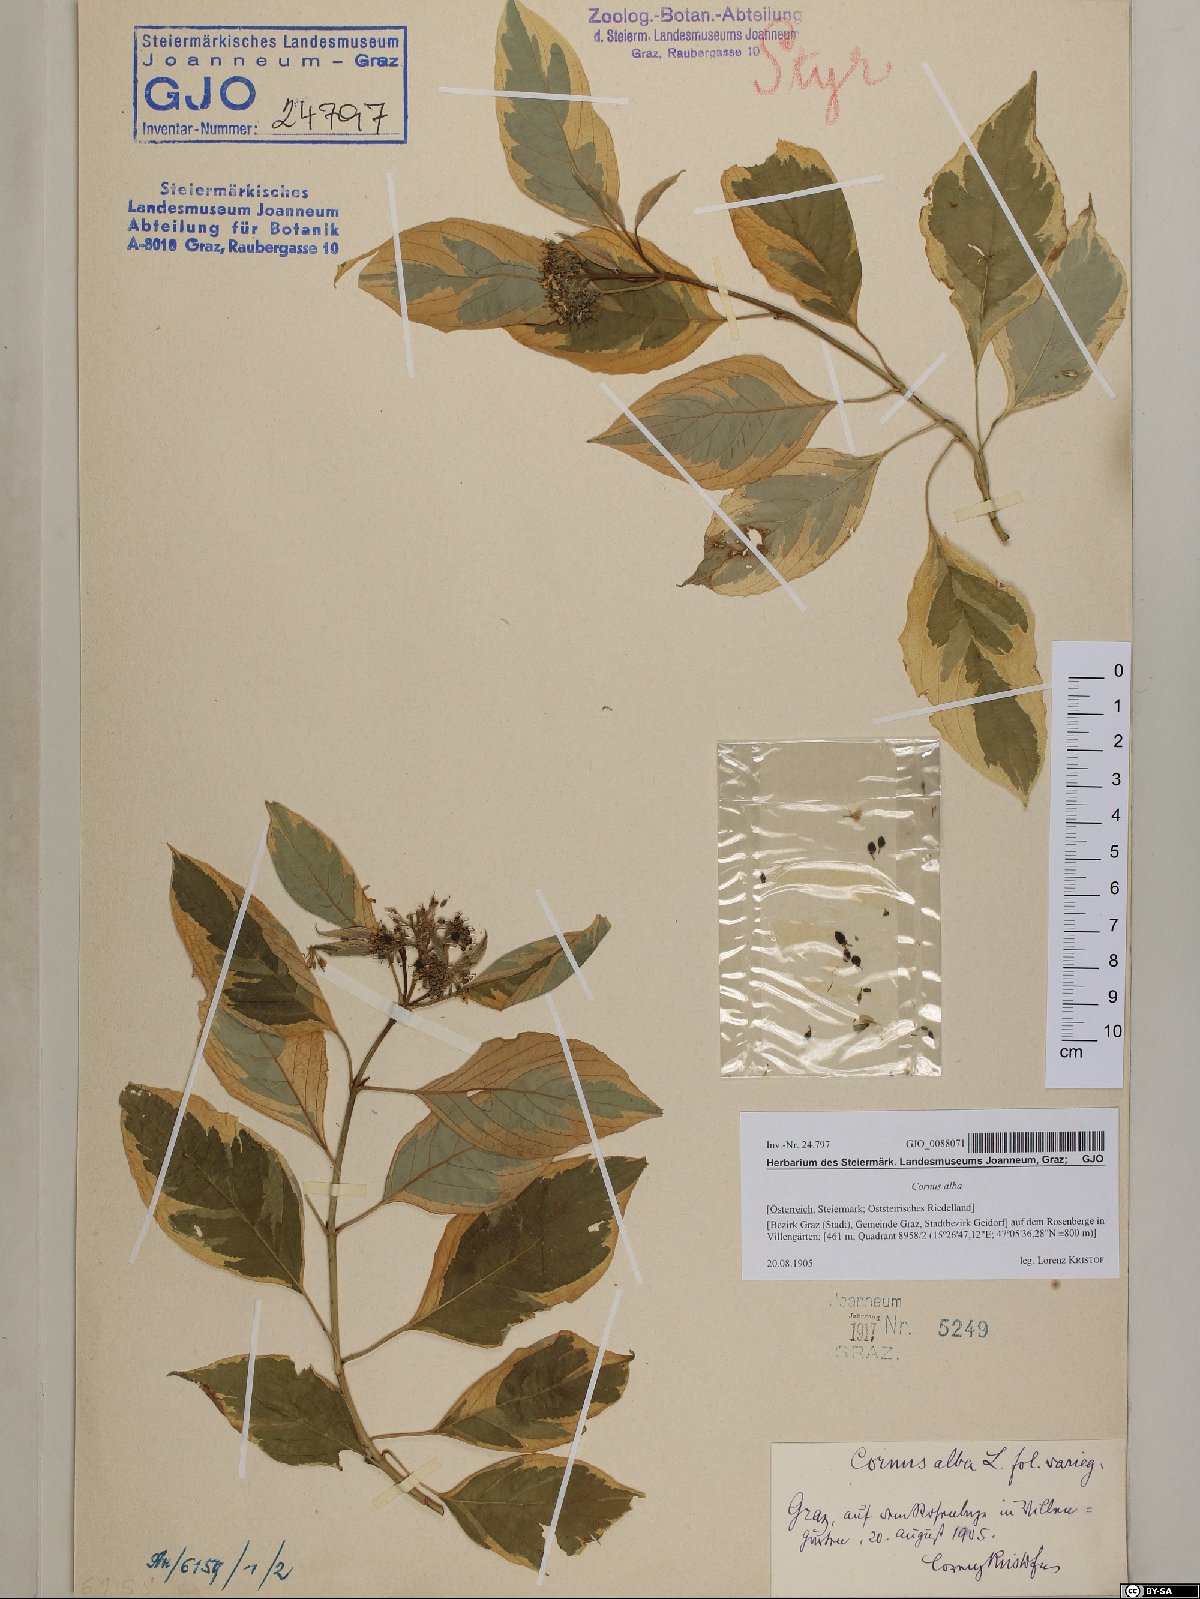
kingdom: Plantae
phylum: Tracheophyta
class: Magnoliopsida
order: Cornales
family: Cornaceae
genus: Cornus
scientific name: Cornus alba
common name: White dogwood
